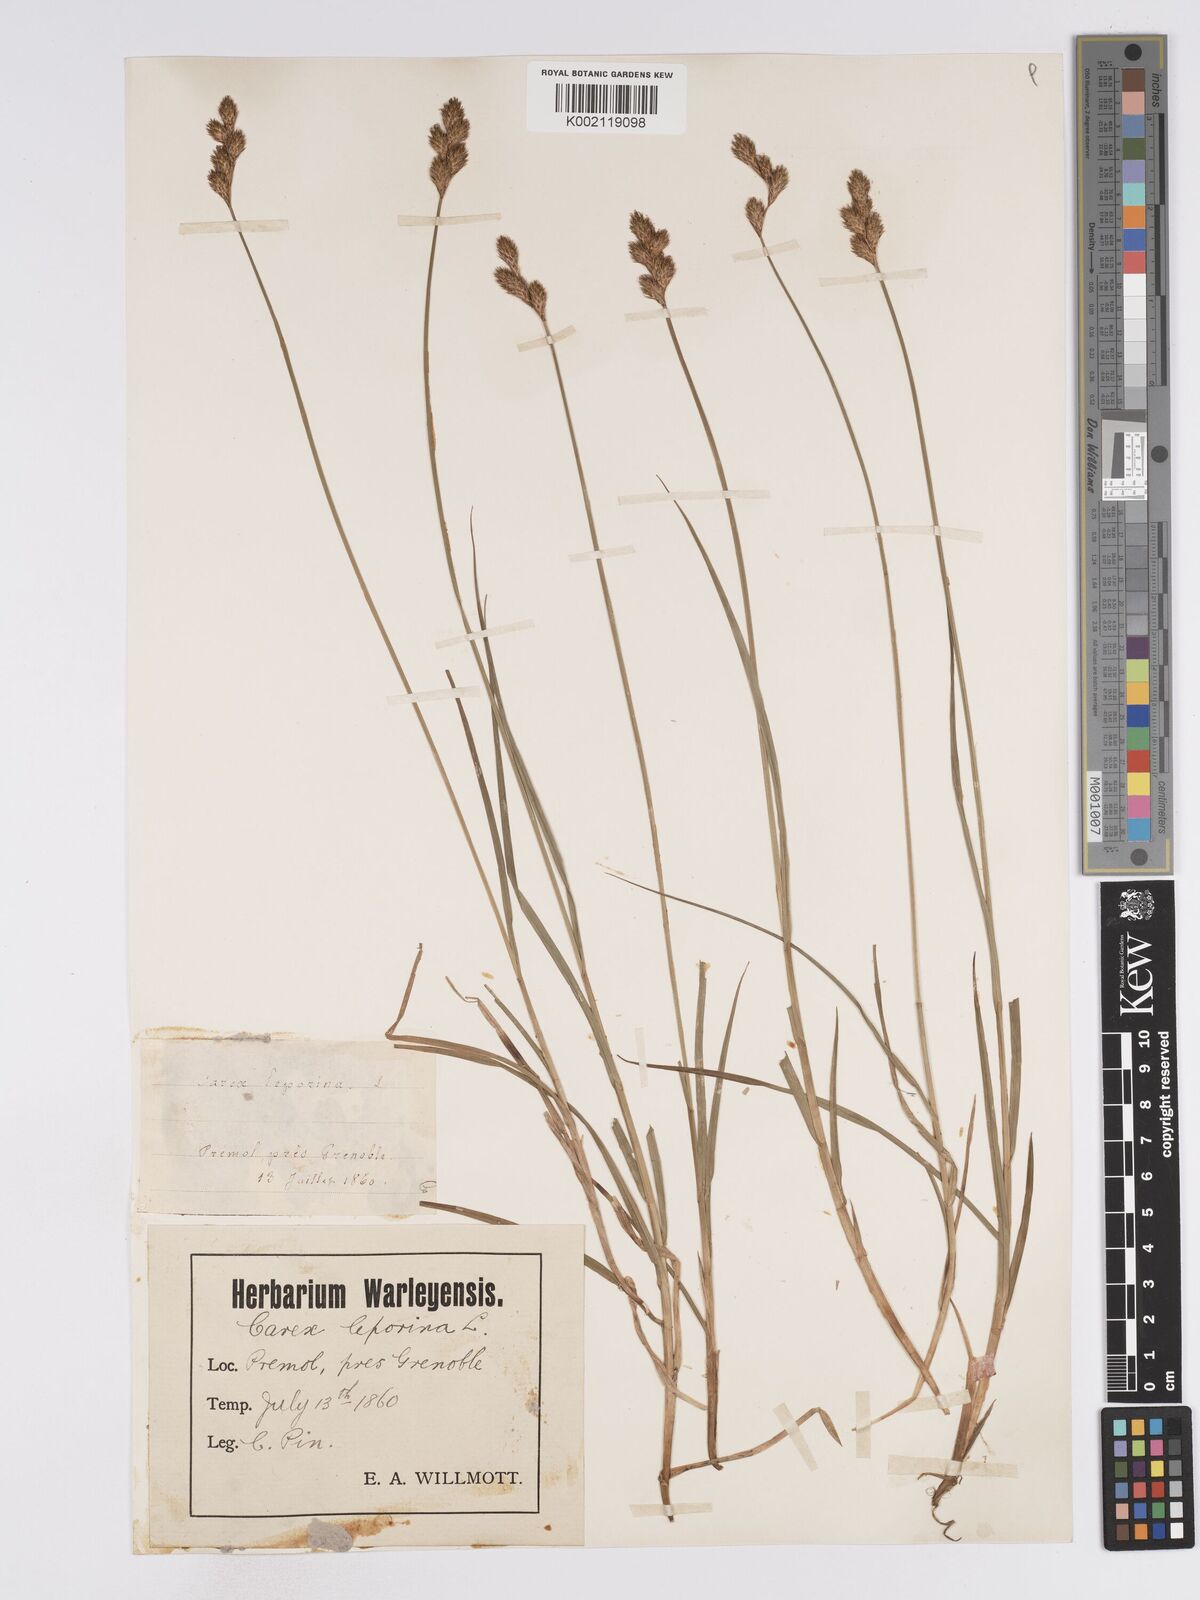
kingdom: Plantae
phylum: Tracheophyta
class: Liliopsida
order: Poales
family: Cyperaceae
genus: Carex
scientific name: Carex leporina
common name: Oval sedge
